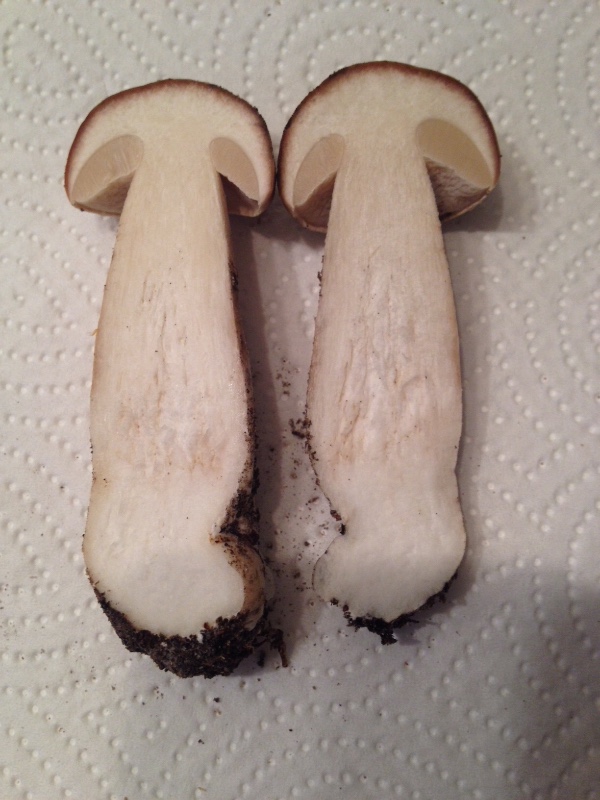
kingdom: Fungi
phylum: Basidiomycota
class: Agaricomycetes
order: Boletales
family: Boletaceae
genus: Boletus
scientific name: Boletus edulis
